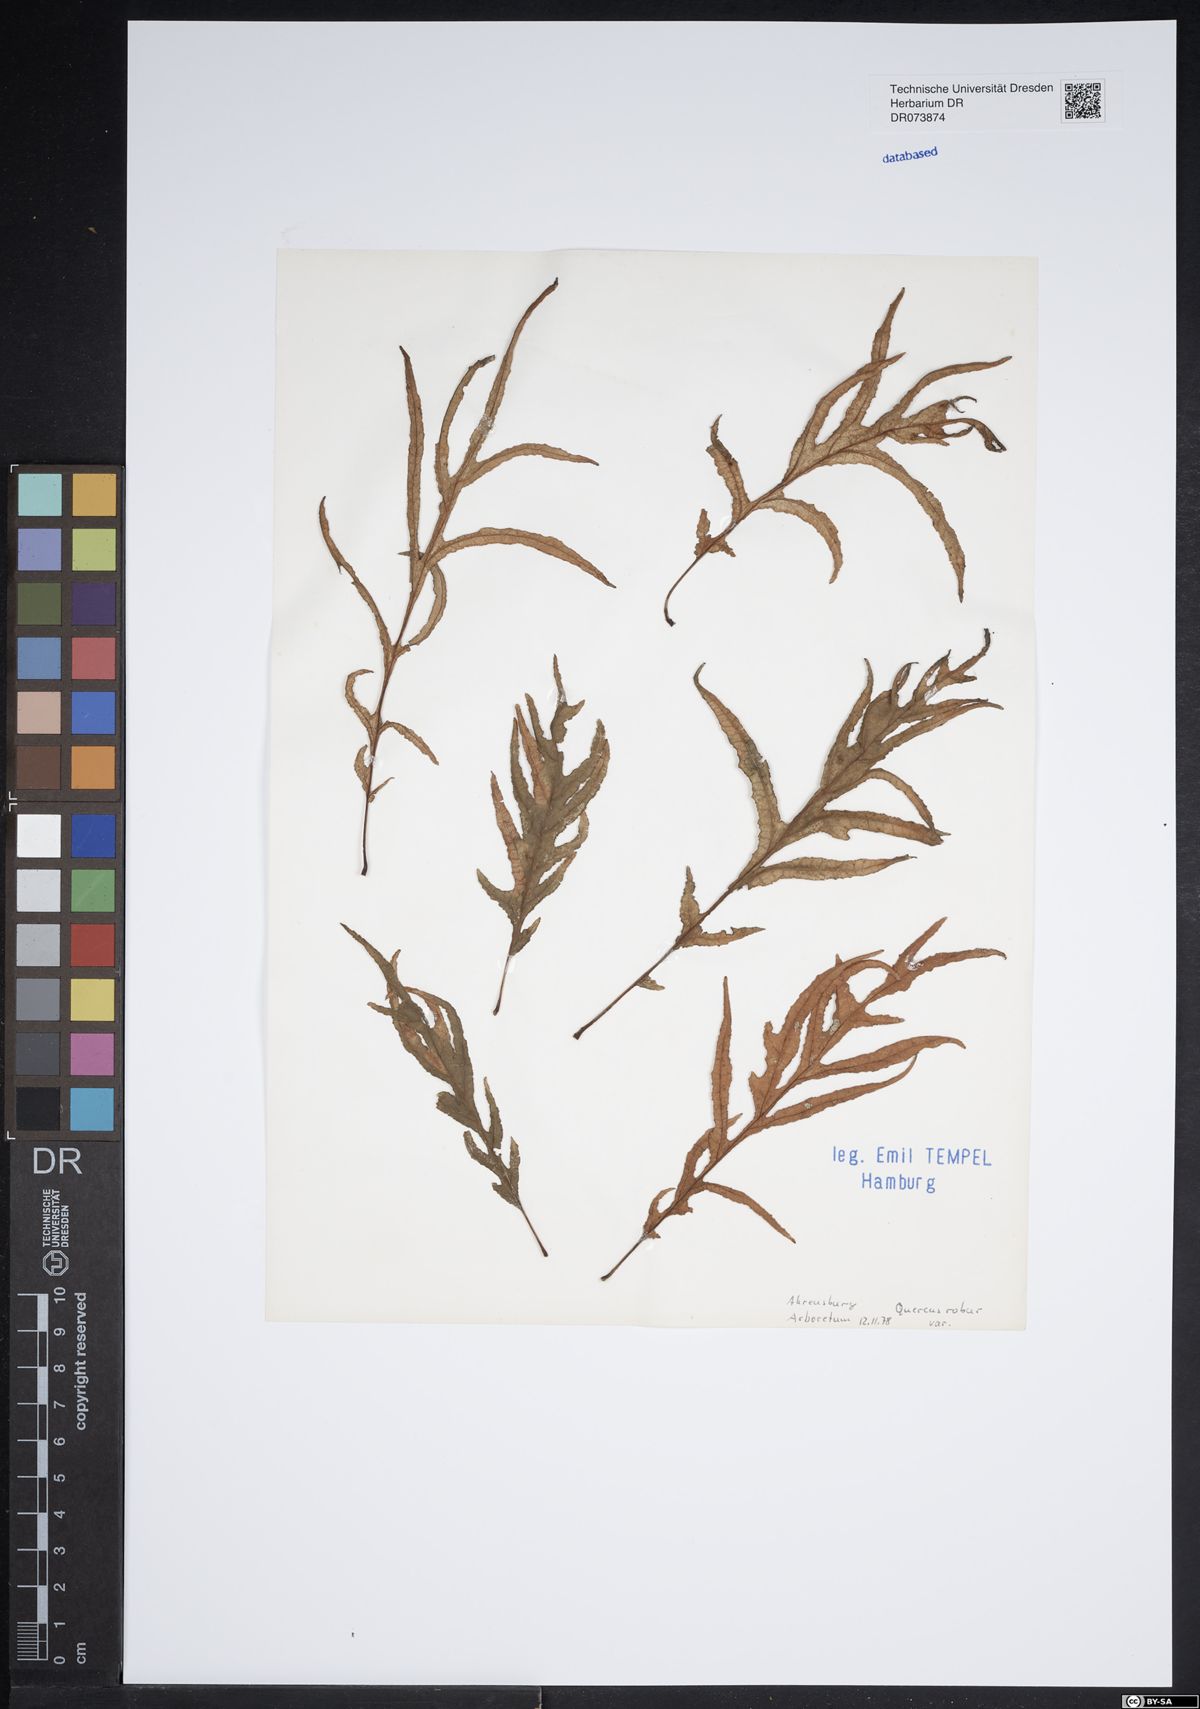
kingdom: Plantae
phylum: Tracheophyta
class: Magnoliopsida
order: Fagales
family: Fagaceae
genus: Quercus
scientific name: Quercus robur
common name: Pedunculate oak
